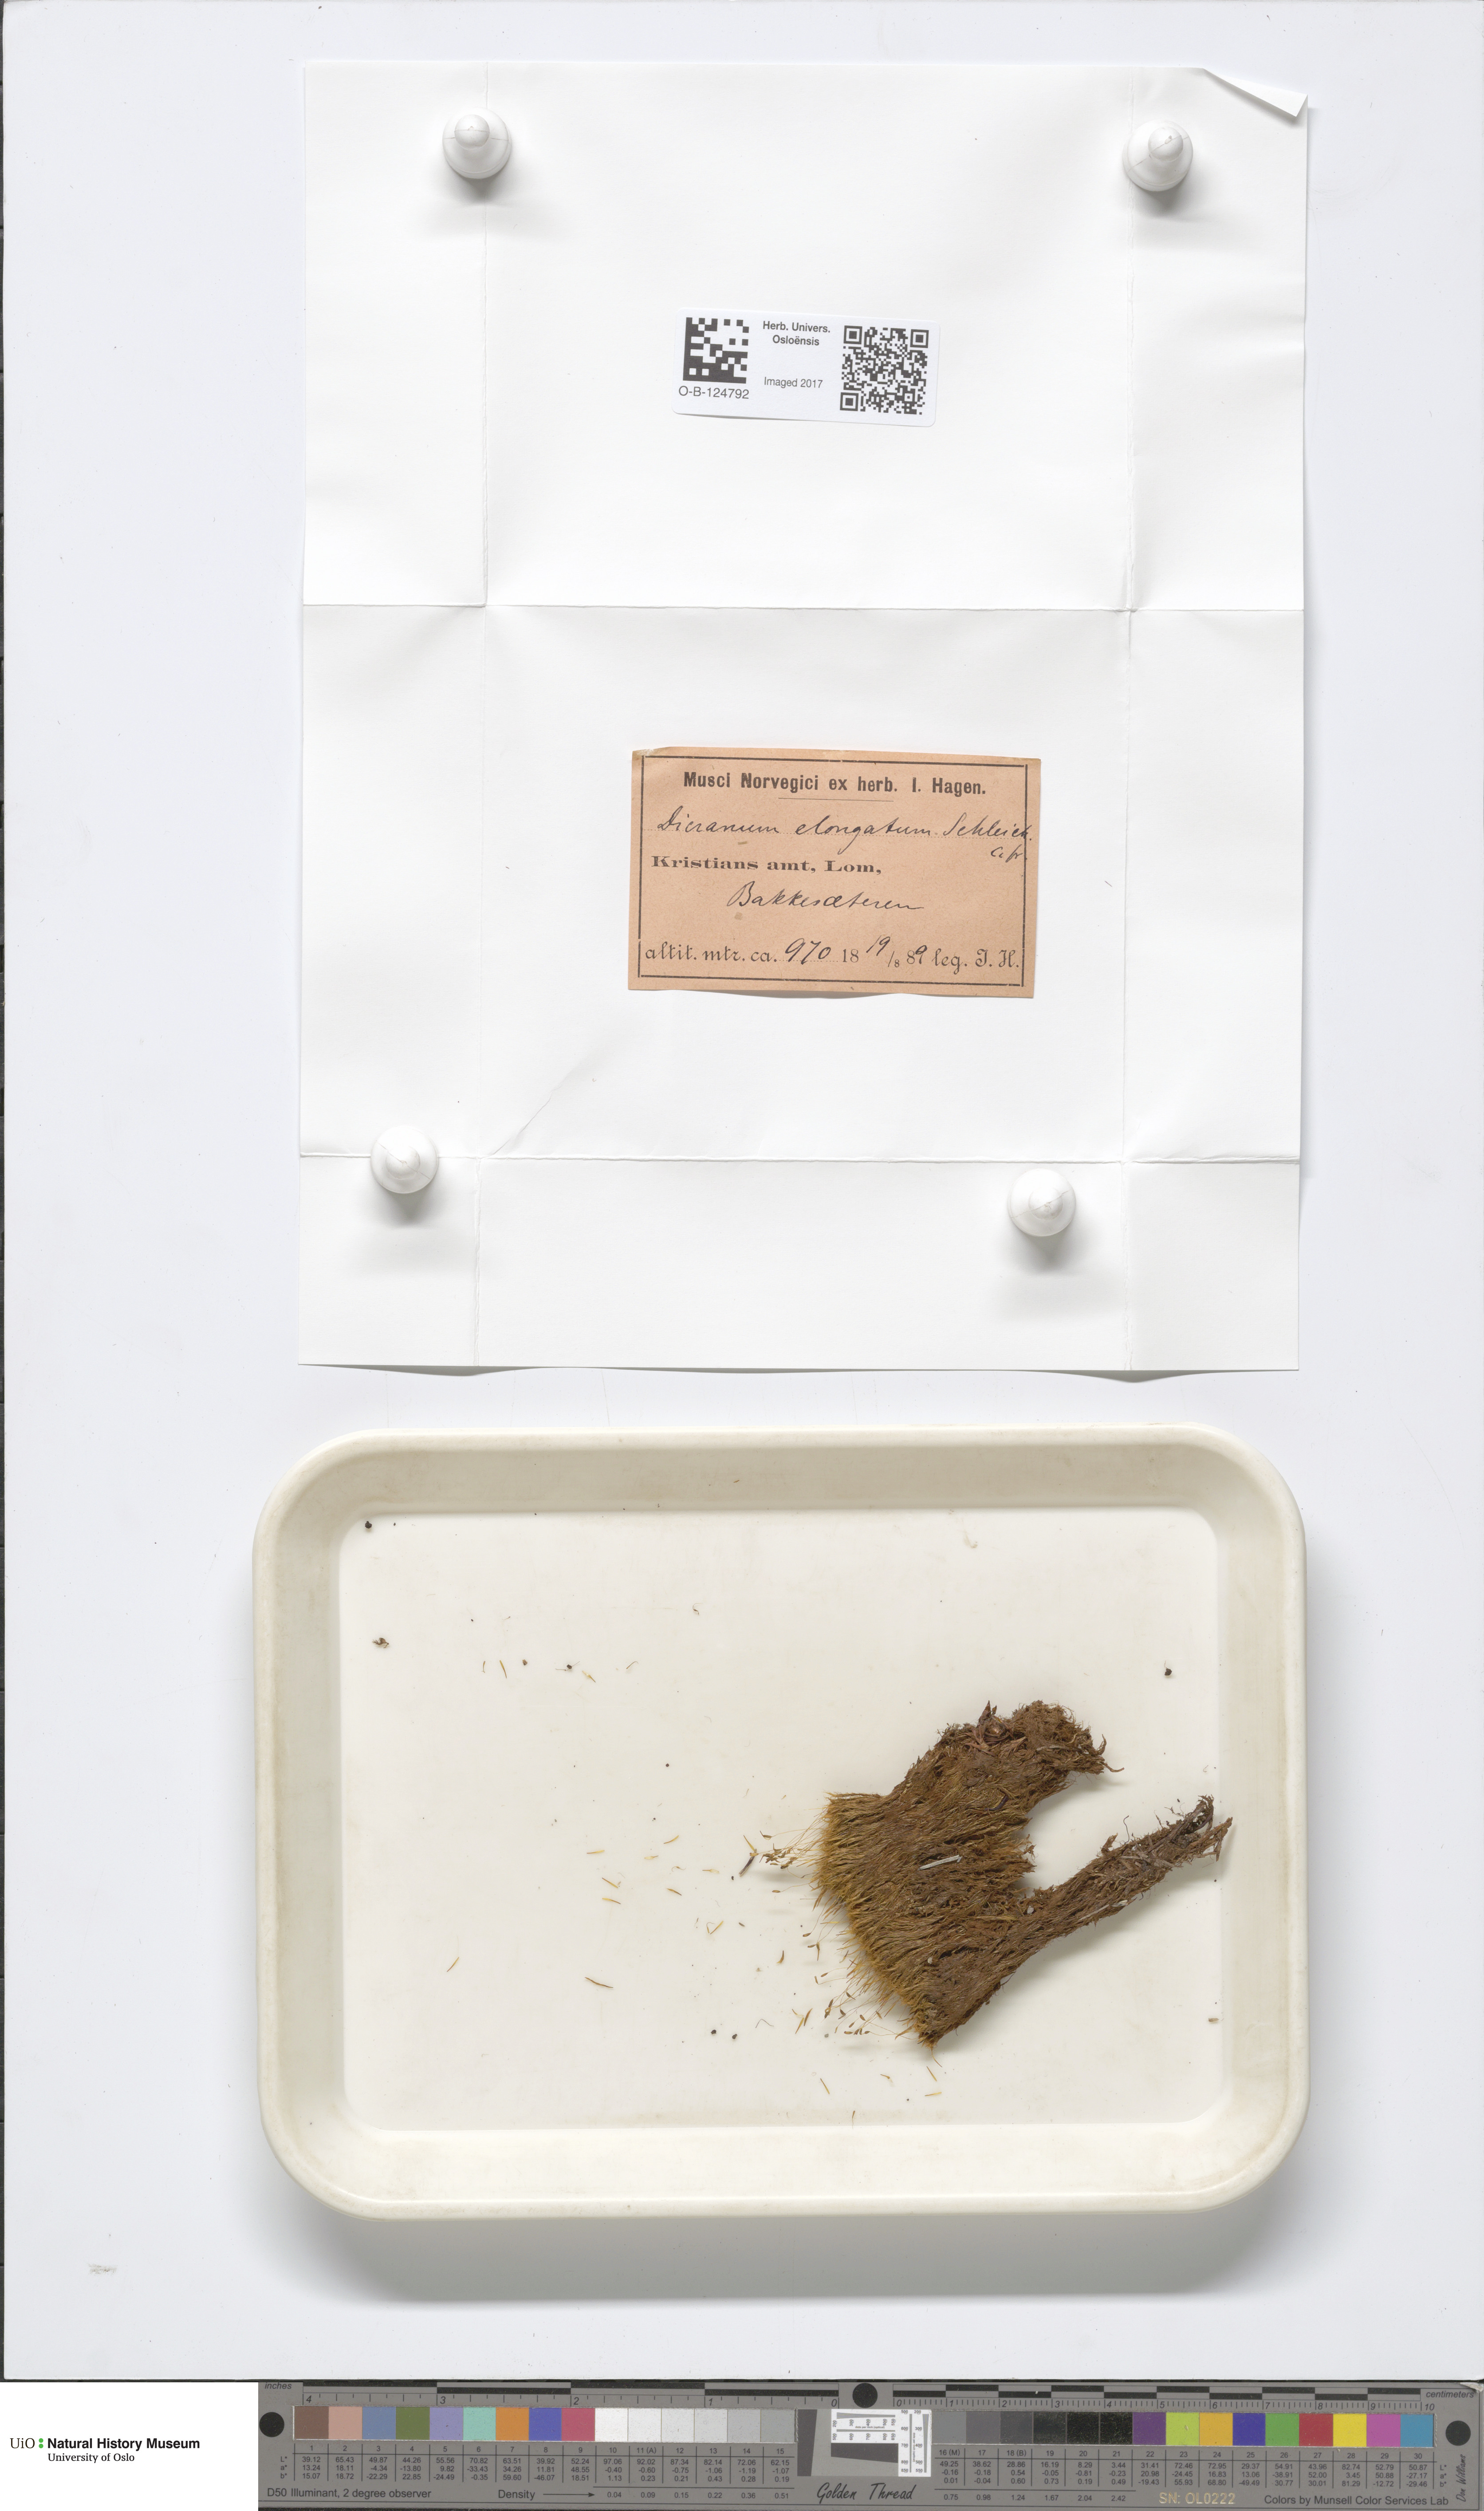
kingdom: Plantae
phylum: Bryophyta
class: Bryopsida
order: Dicranales
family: Dicranaceae
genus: Dicranum
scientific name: Dicranum elongatum
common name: Long-forked broom moss
